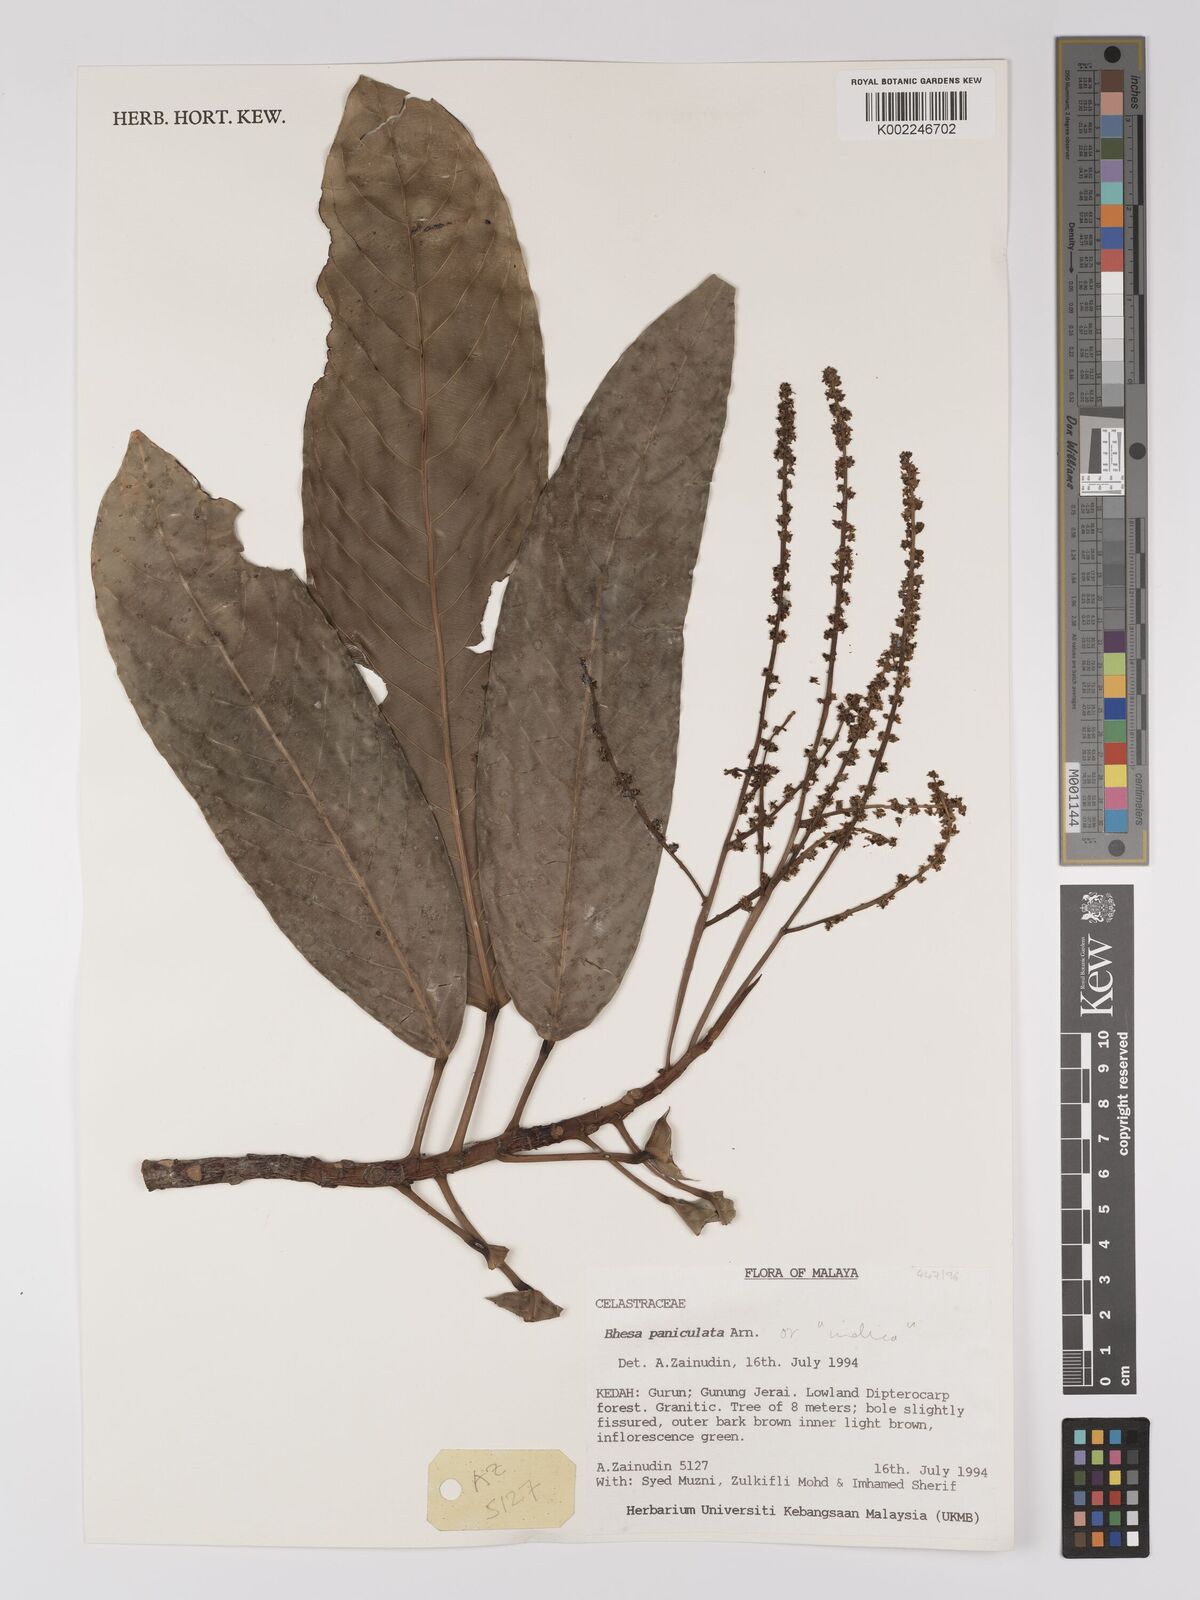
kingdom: Plantae
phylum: Tracheophyta
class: Magnoliopsida
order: Malpighiales
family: Centroplacaceae
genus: Bhesa
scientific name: Bhesa indica
